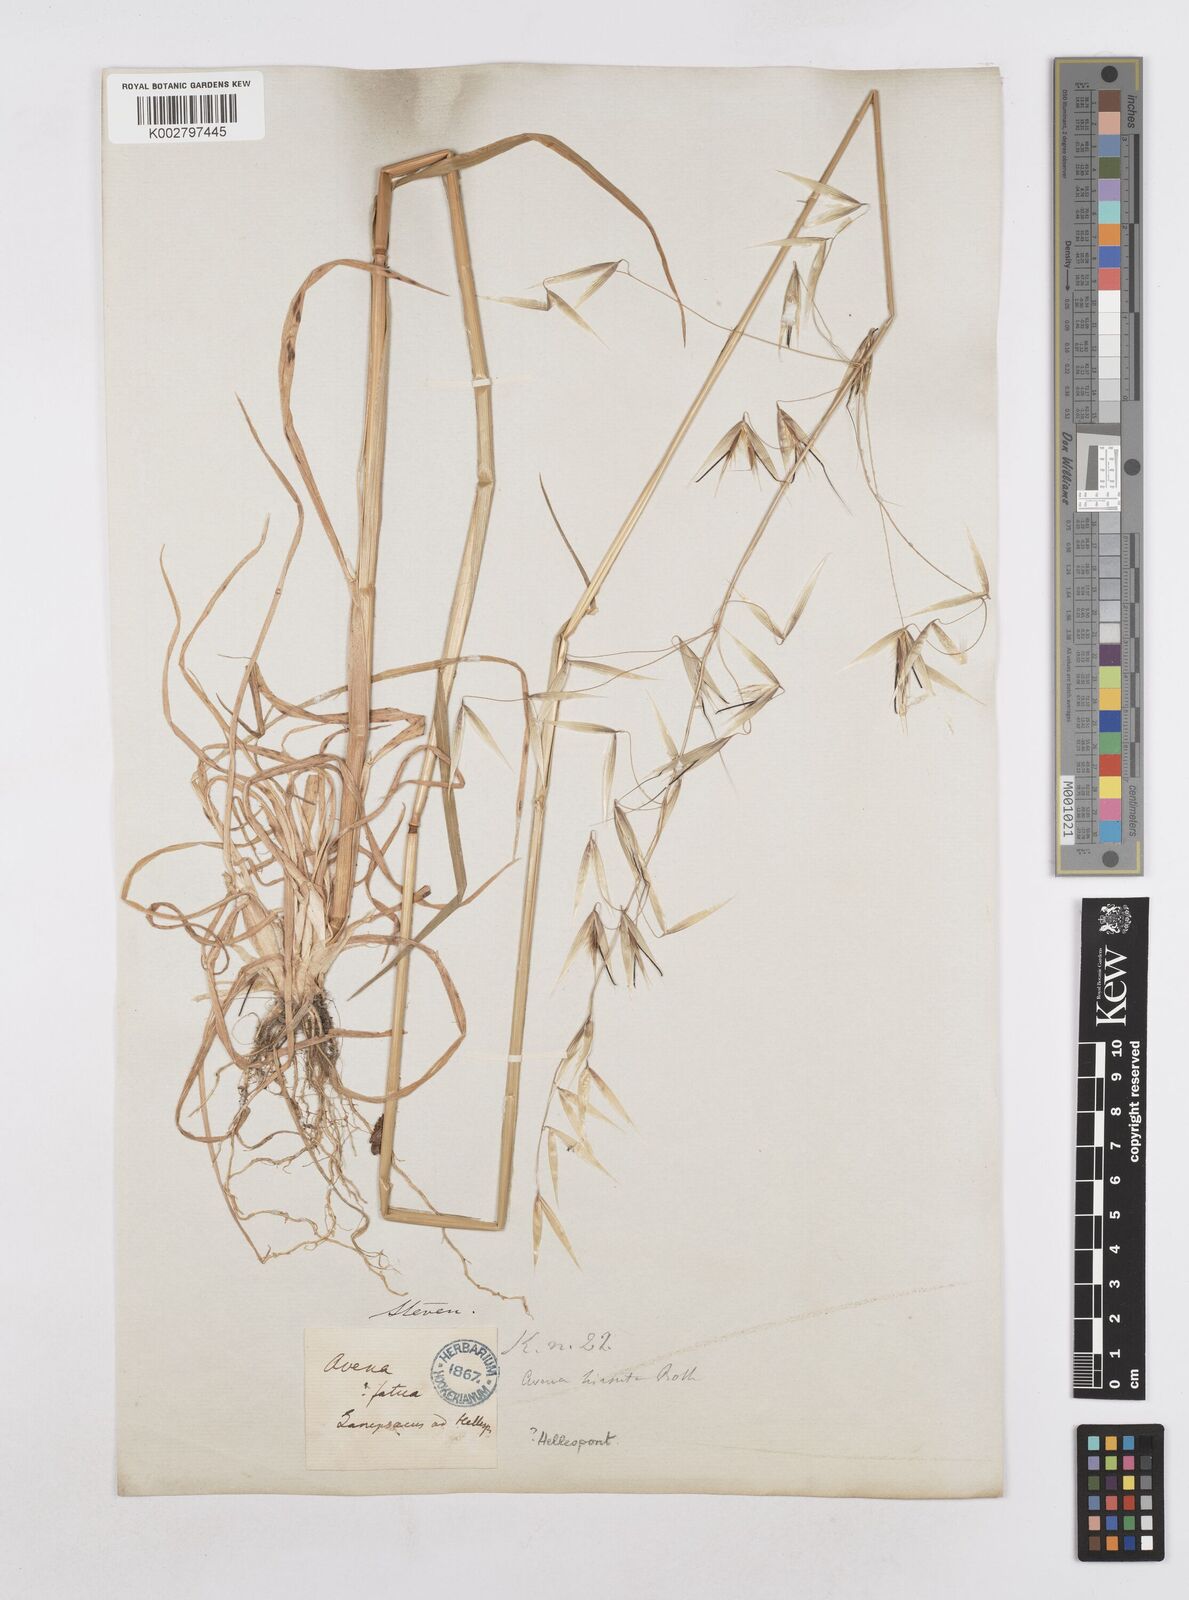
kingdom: Plantae
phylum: Tracheophyta
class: Liliopsida
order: Poales
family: Poaceae
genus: Avena
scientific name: Avena fatua
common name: Wild oat
